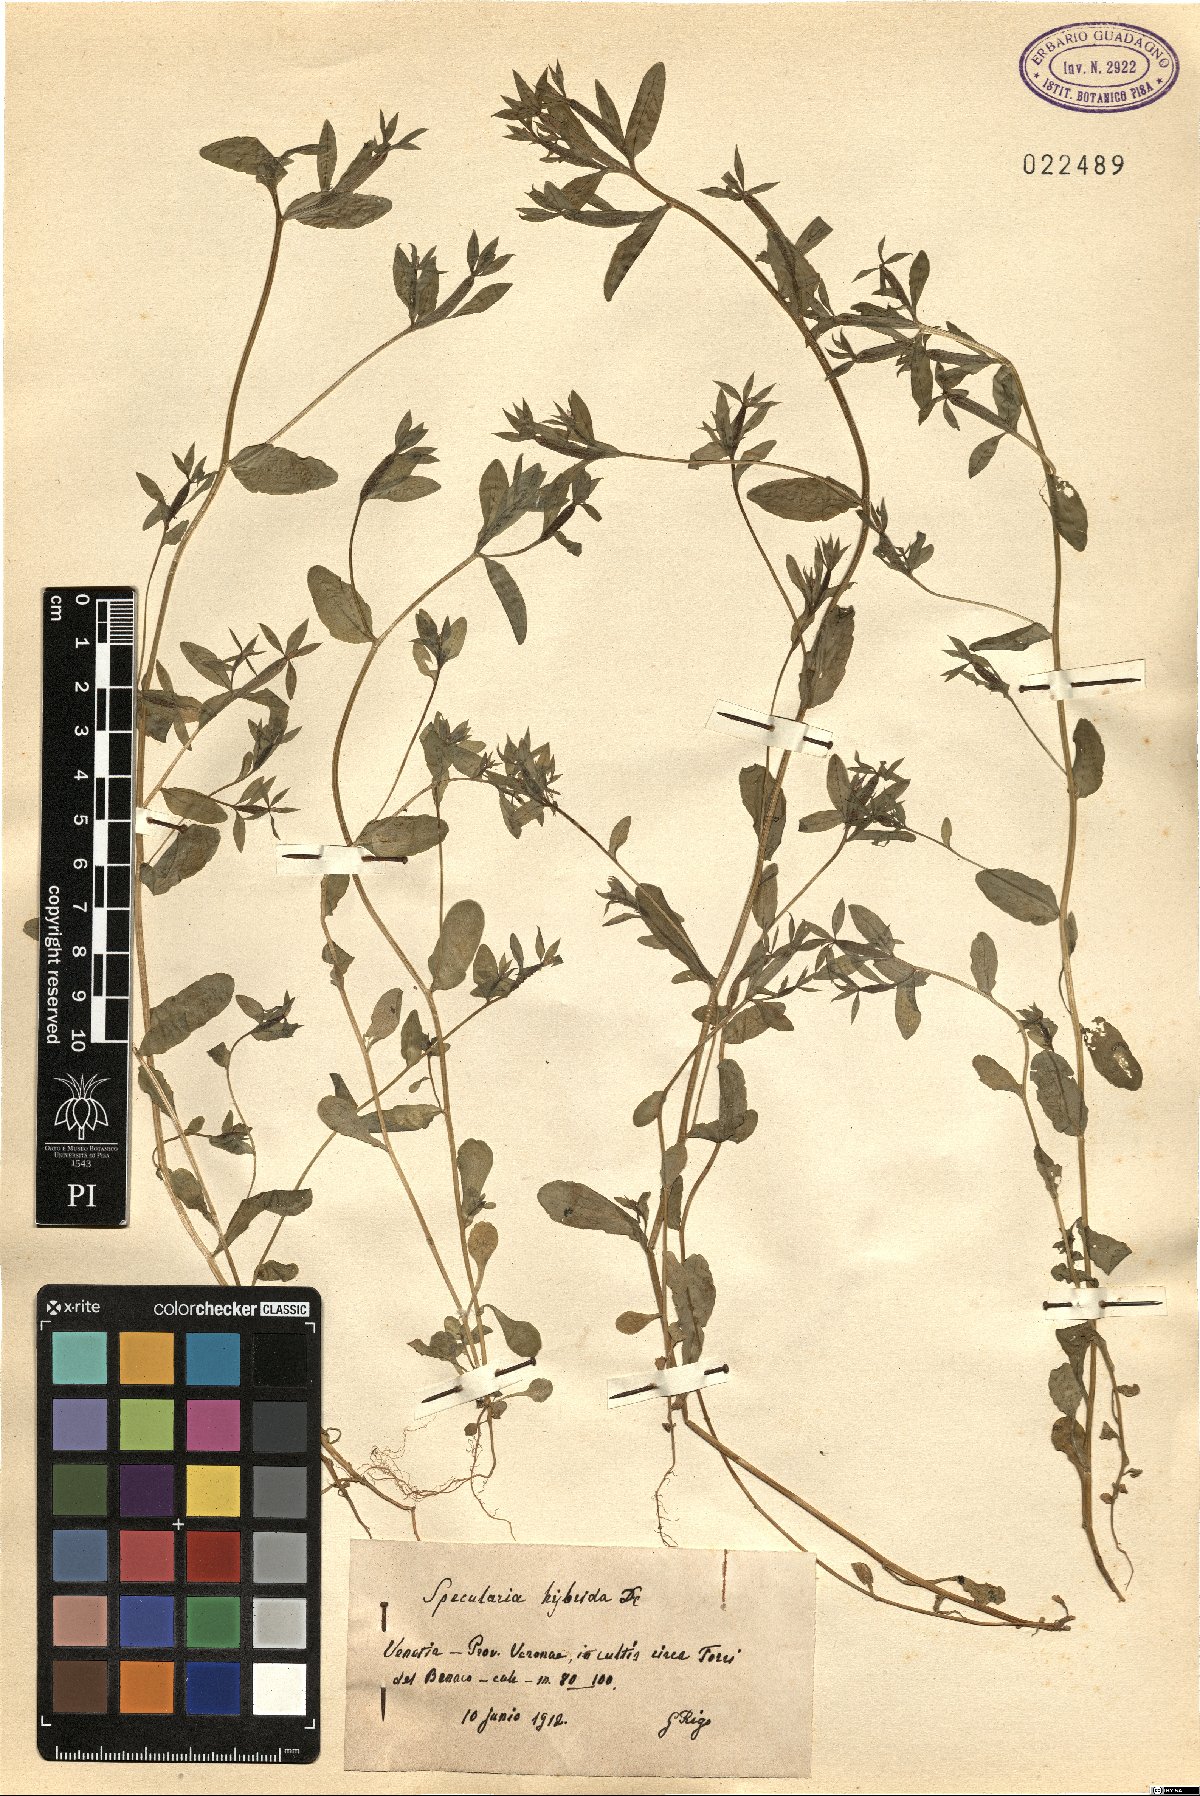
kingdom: Plantae
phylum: Tracheophyta
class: Magnoliopsida
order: Asterales
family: Campanulaceae
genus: Legousia
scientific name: Legousia hybrida
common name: Venus's-looking-glass
